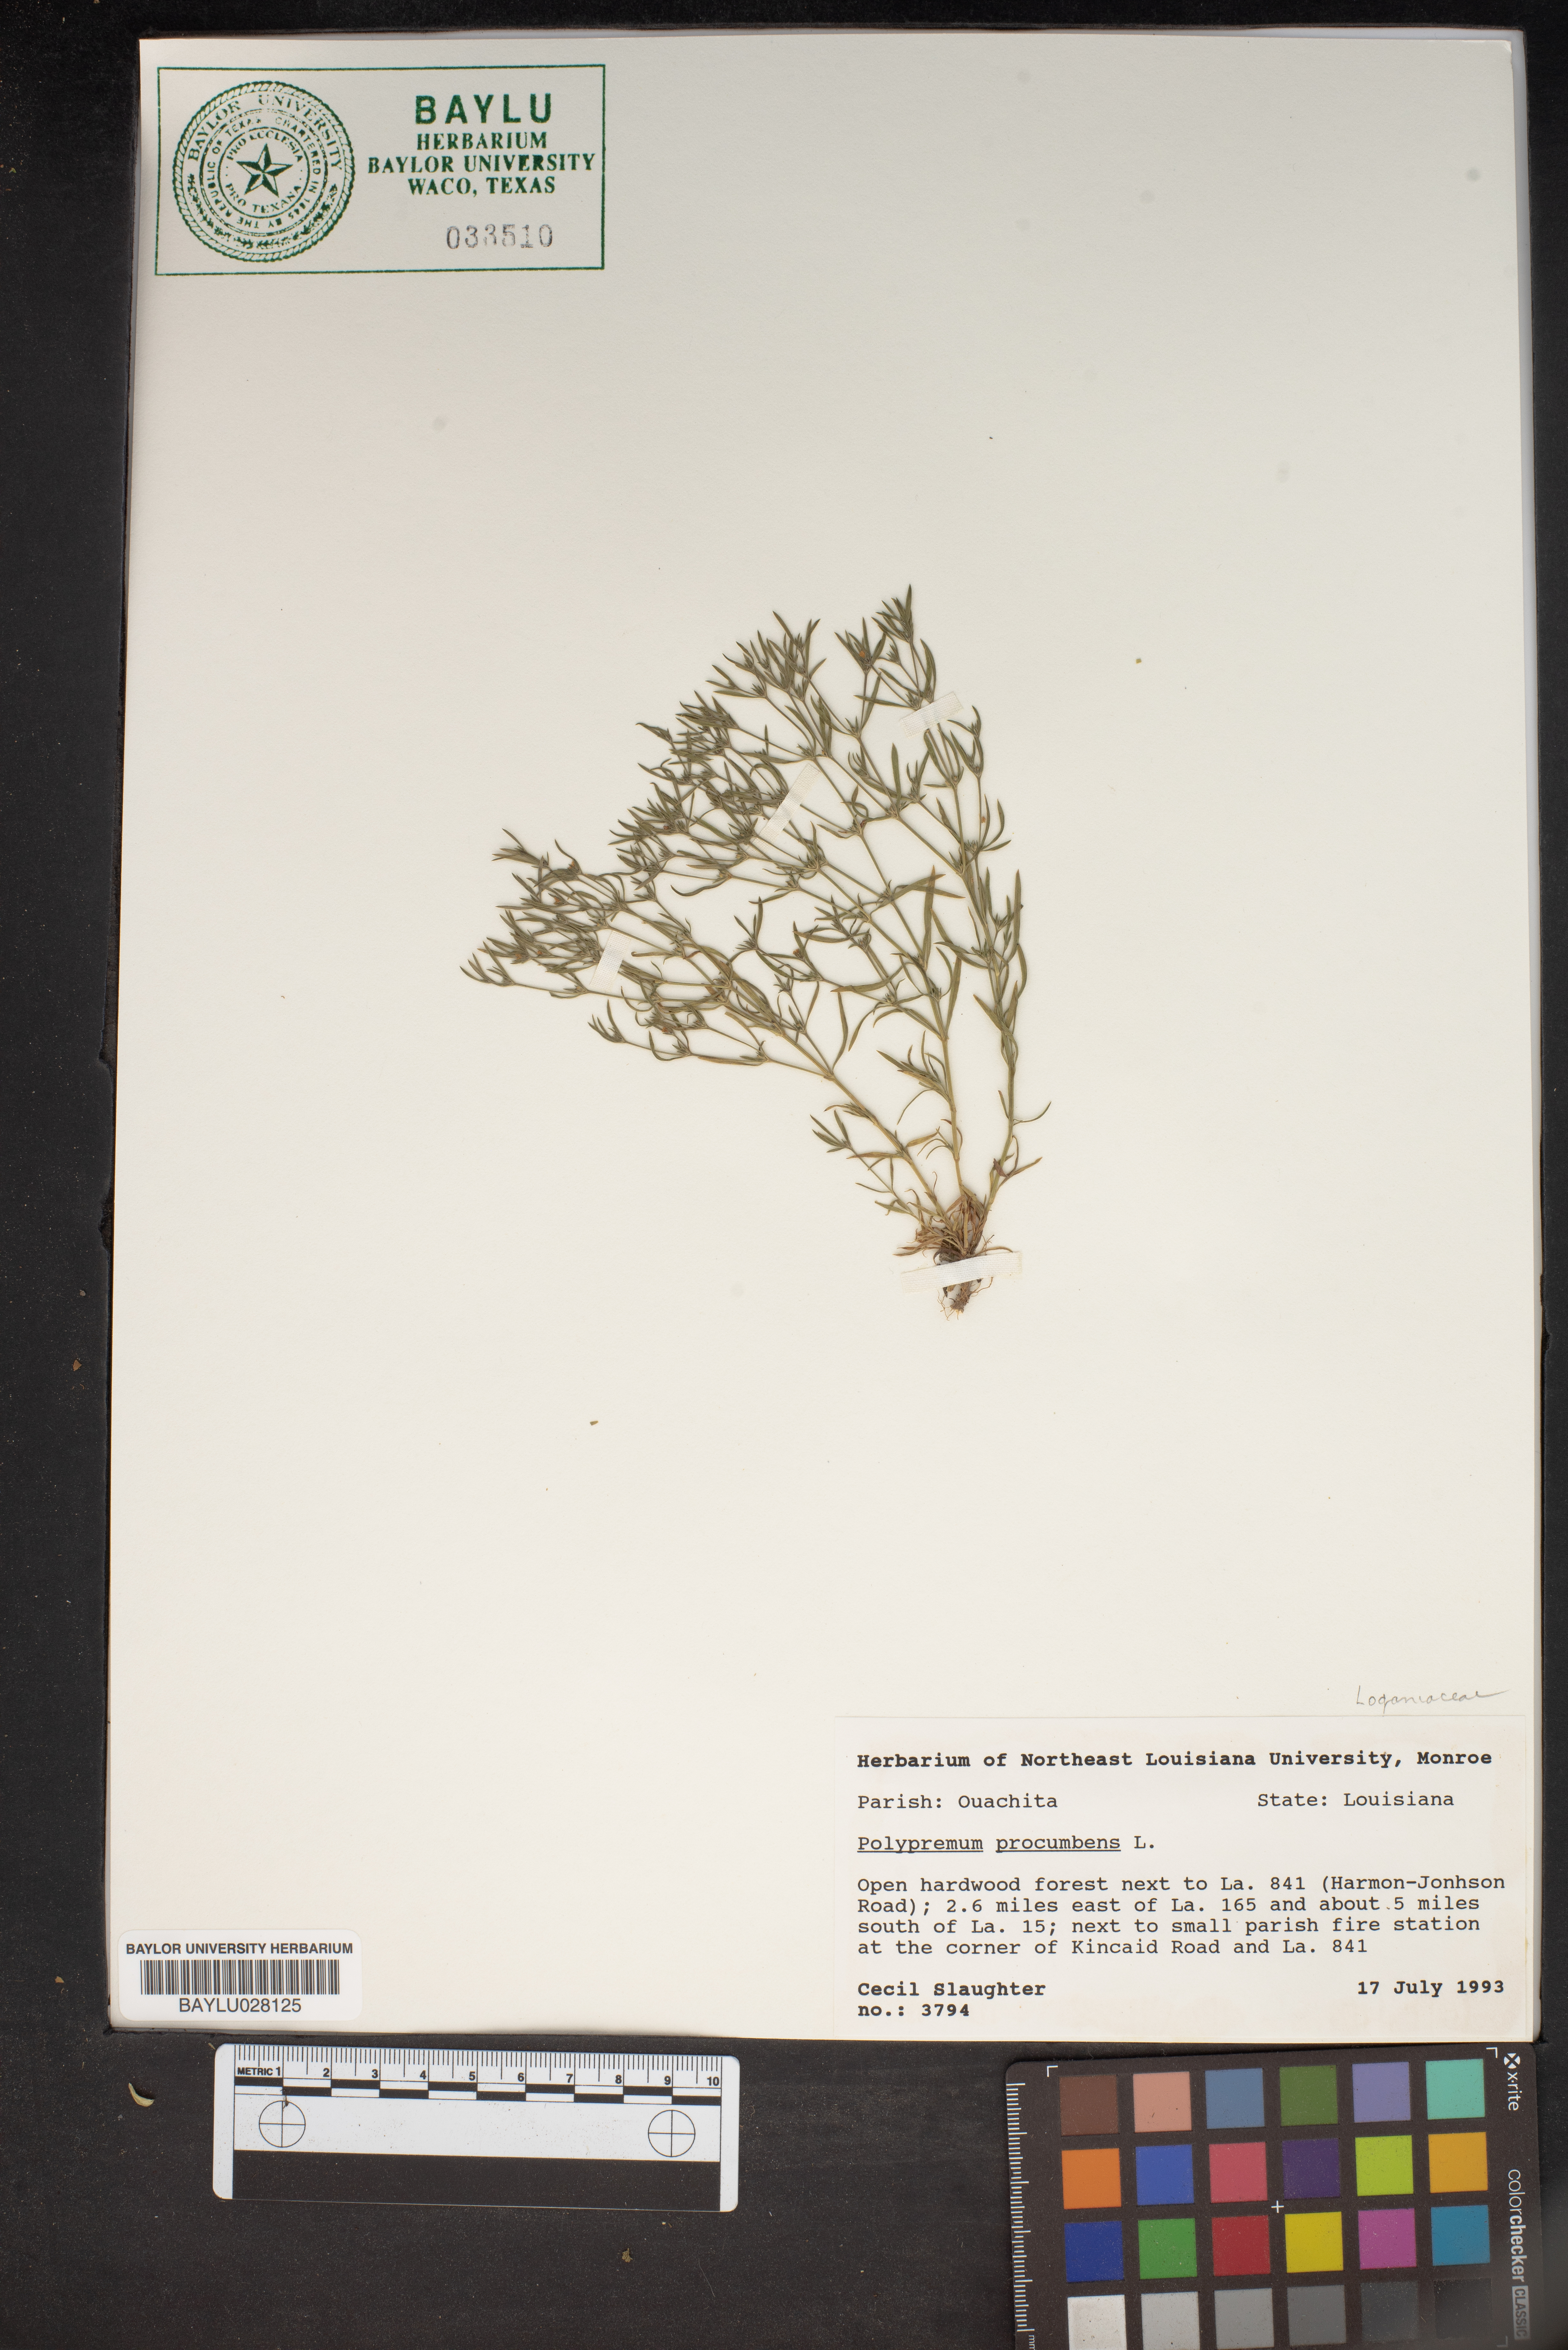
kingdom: Plantae
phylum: Tracheophyta
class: Magnoliopsida
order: Lamiales
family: Tetrachondraceae
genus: Polypremum
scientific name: Polypremum procumbens
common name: Juniper-leaf
